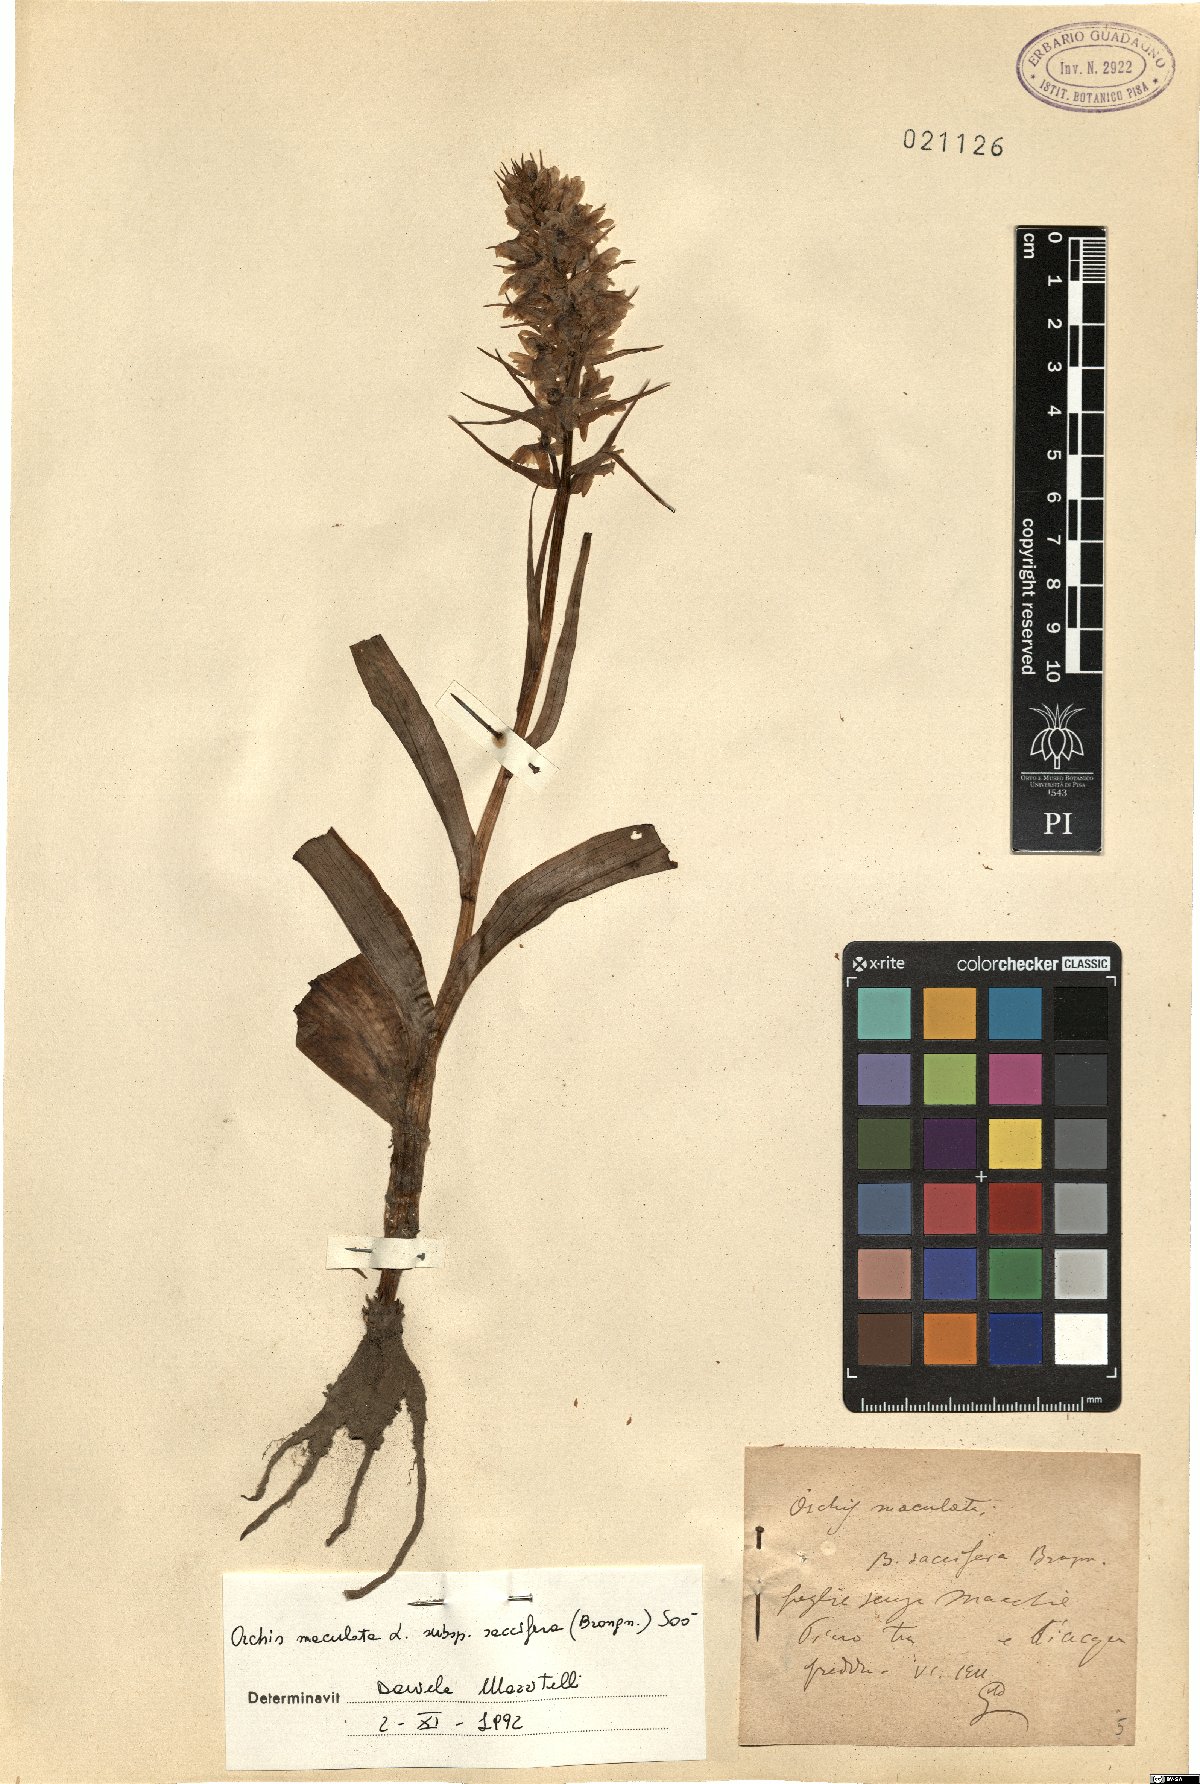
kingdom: Plantae
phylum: Tracheophyta
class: Liliopsida
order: Asparagales
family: Orchidaceae
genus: Dactylorhiza
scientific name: Dactylorhiza maculata
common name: Heath spotted-orchid
